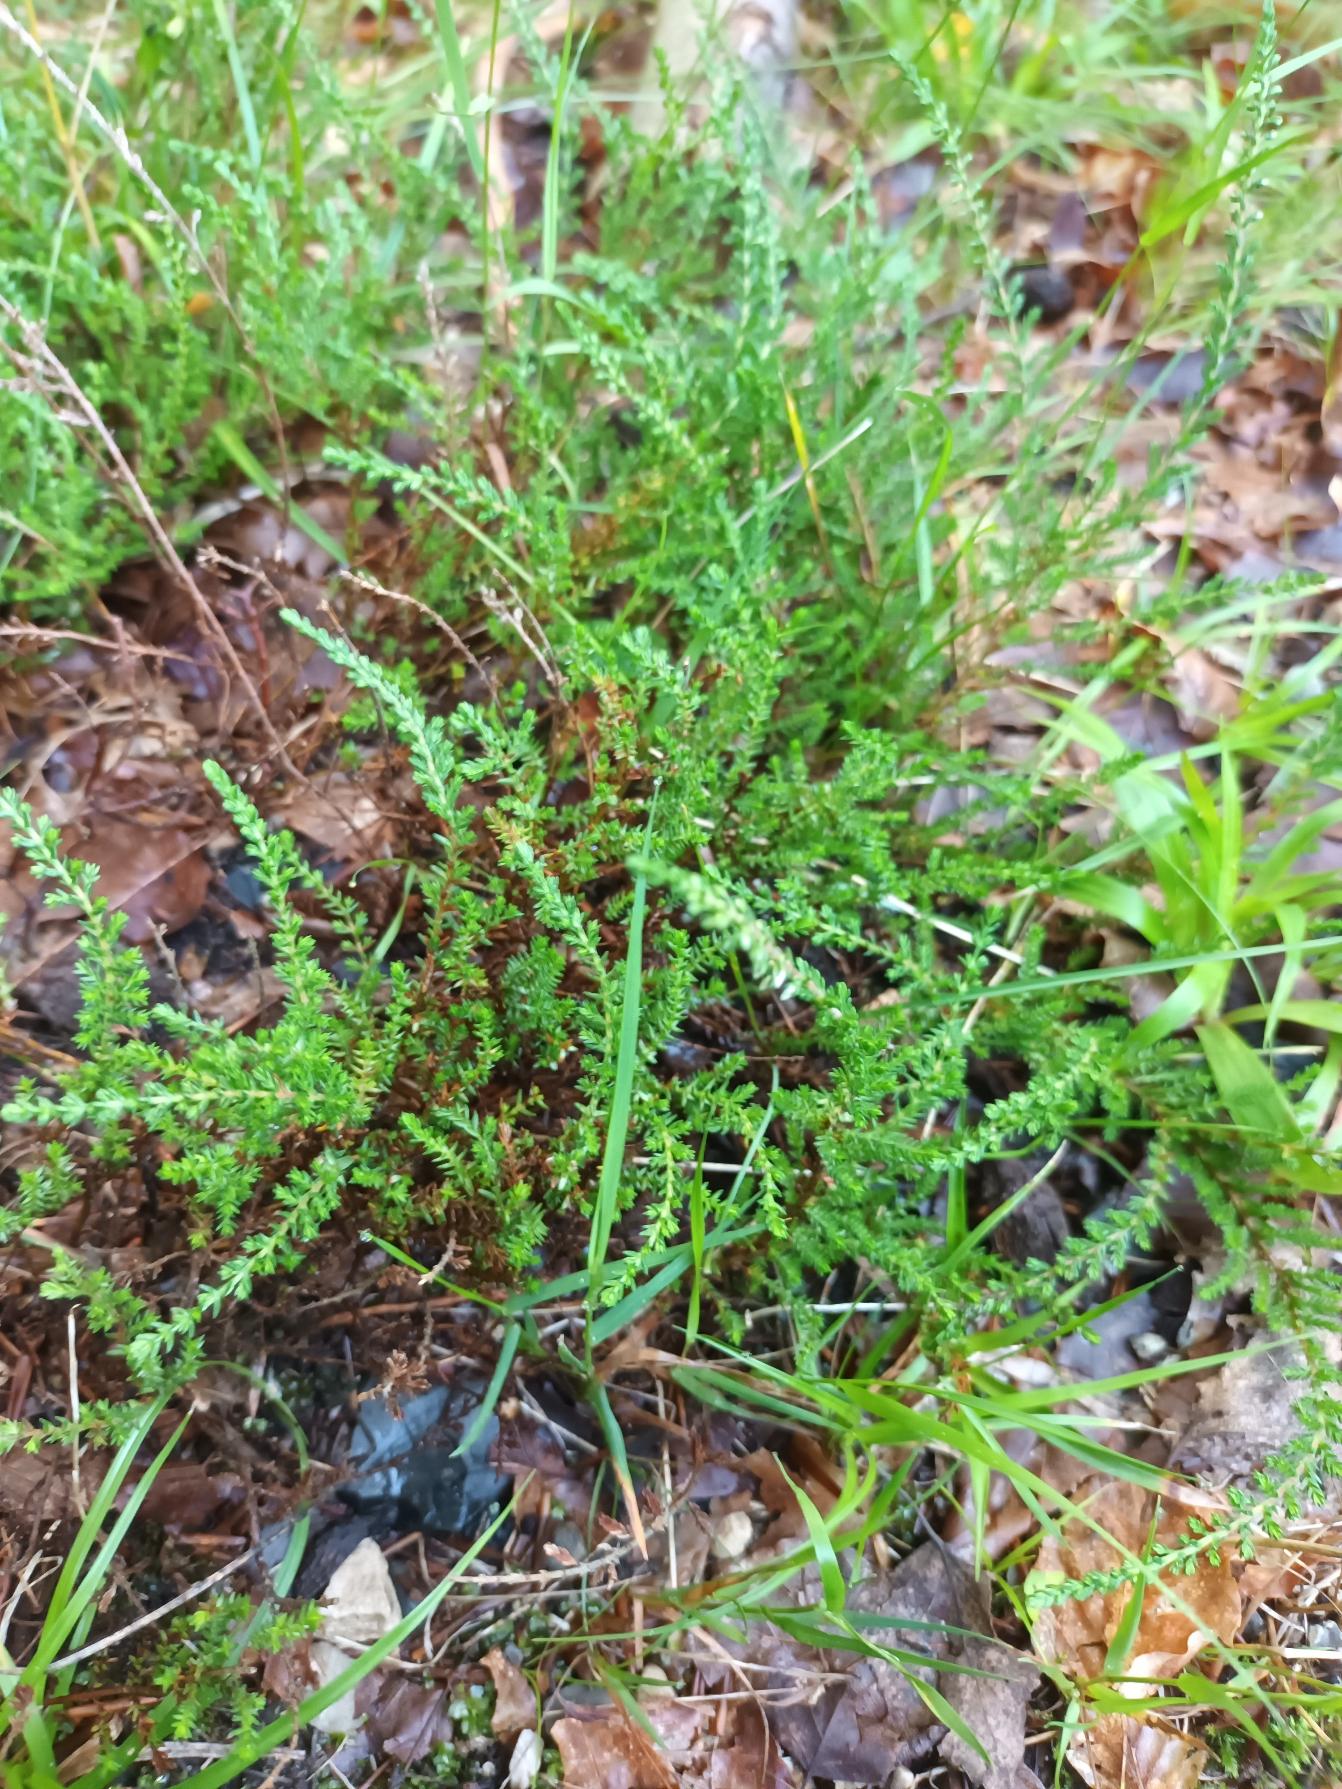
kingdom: Plantae
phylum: Tracheophyta
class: Magnoliopsida
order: Ericales
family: Ericaceae
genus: Calluna
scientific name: Calluna vulgaris
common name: Hedelyng
